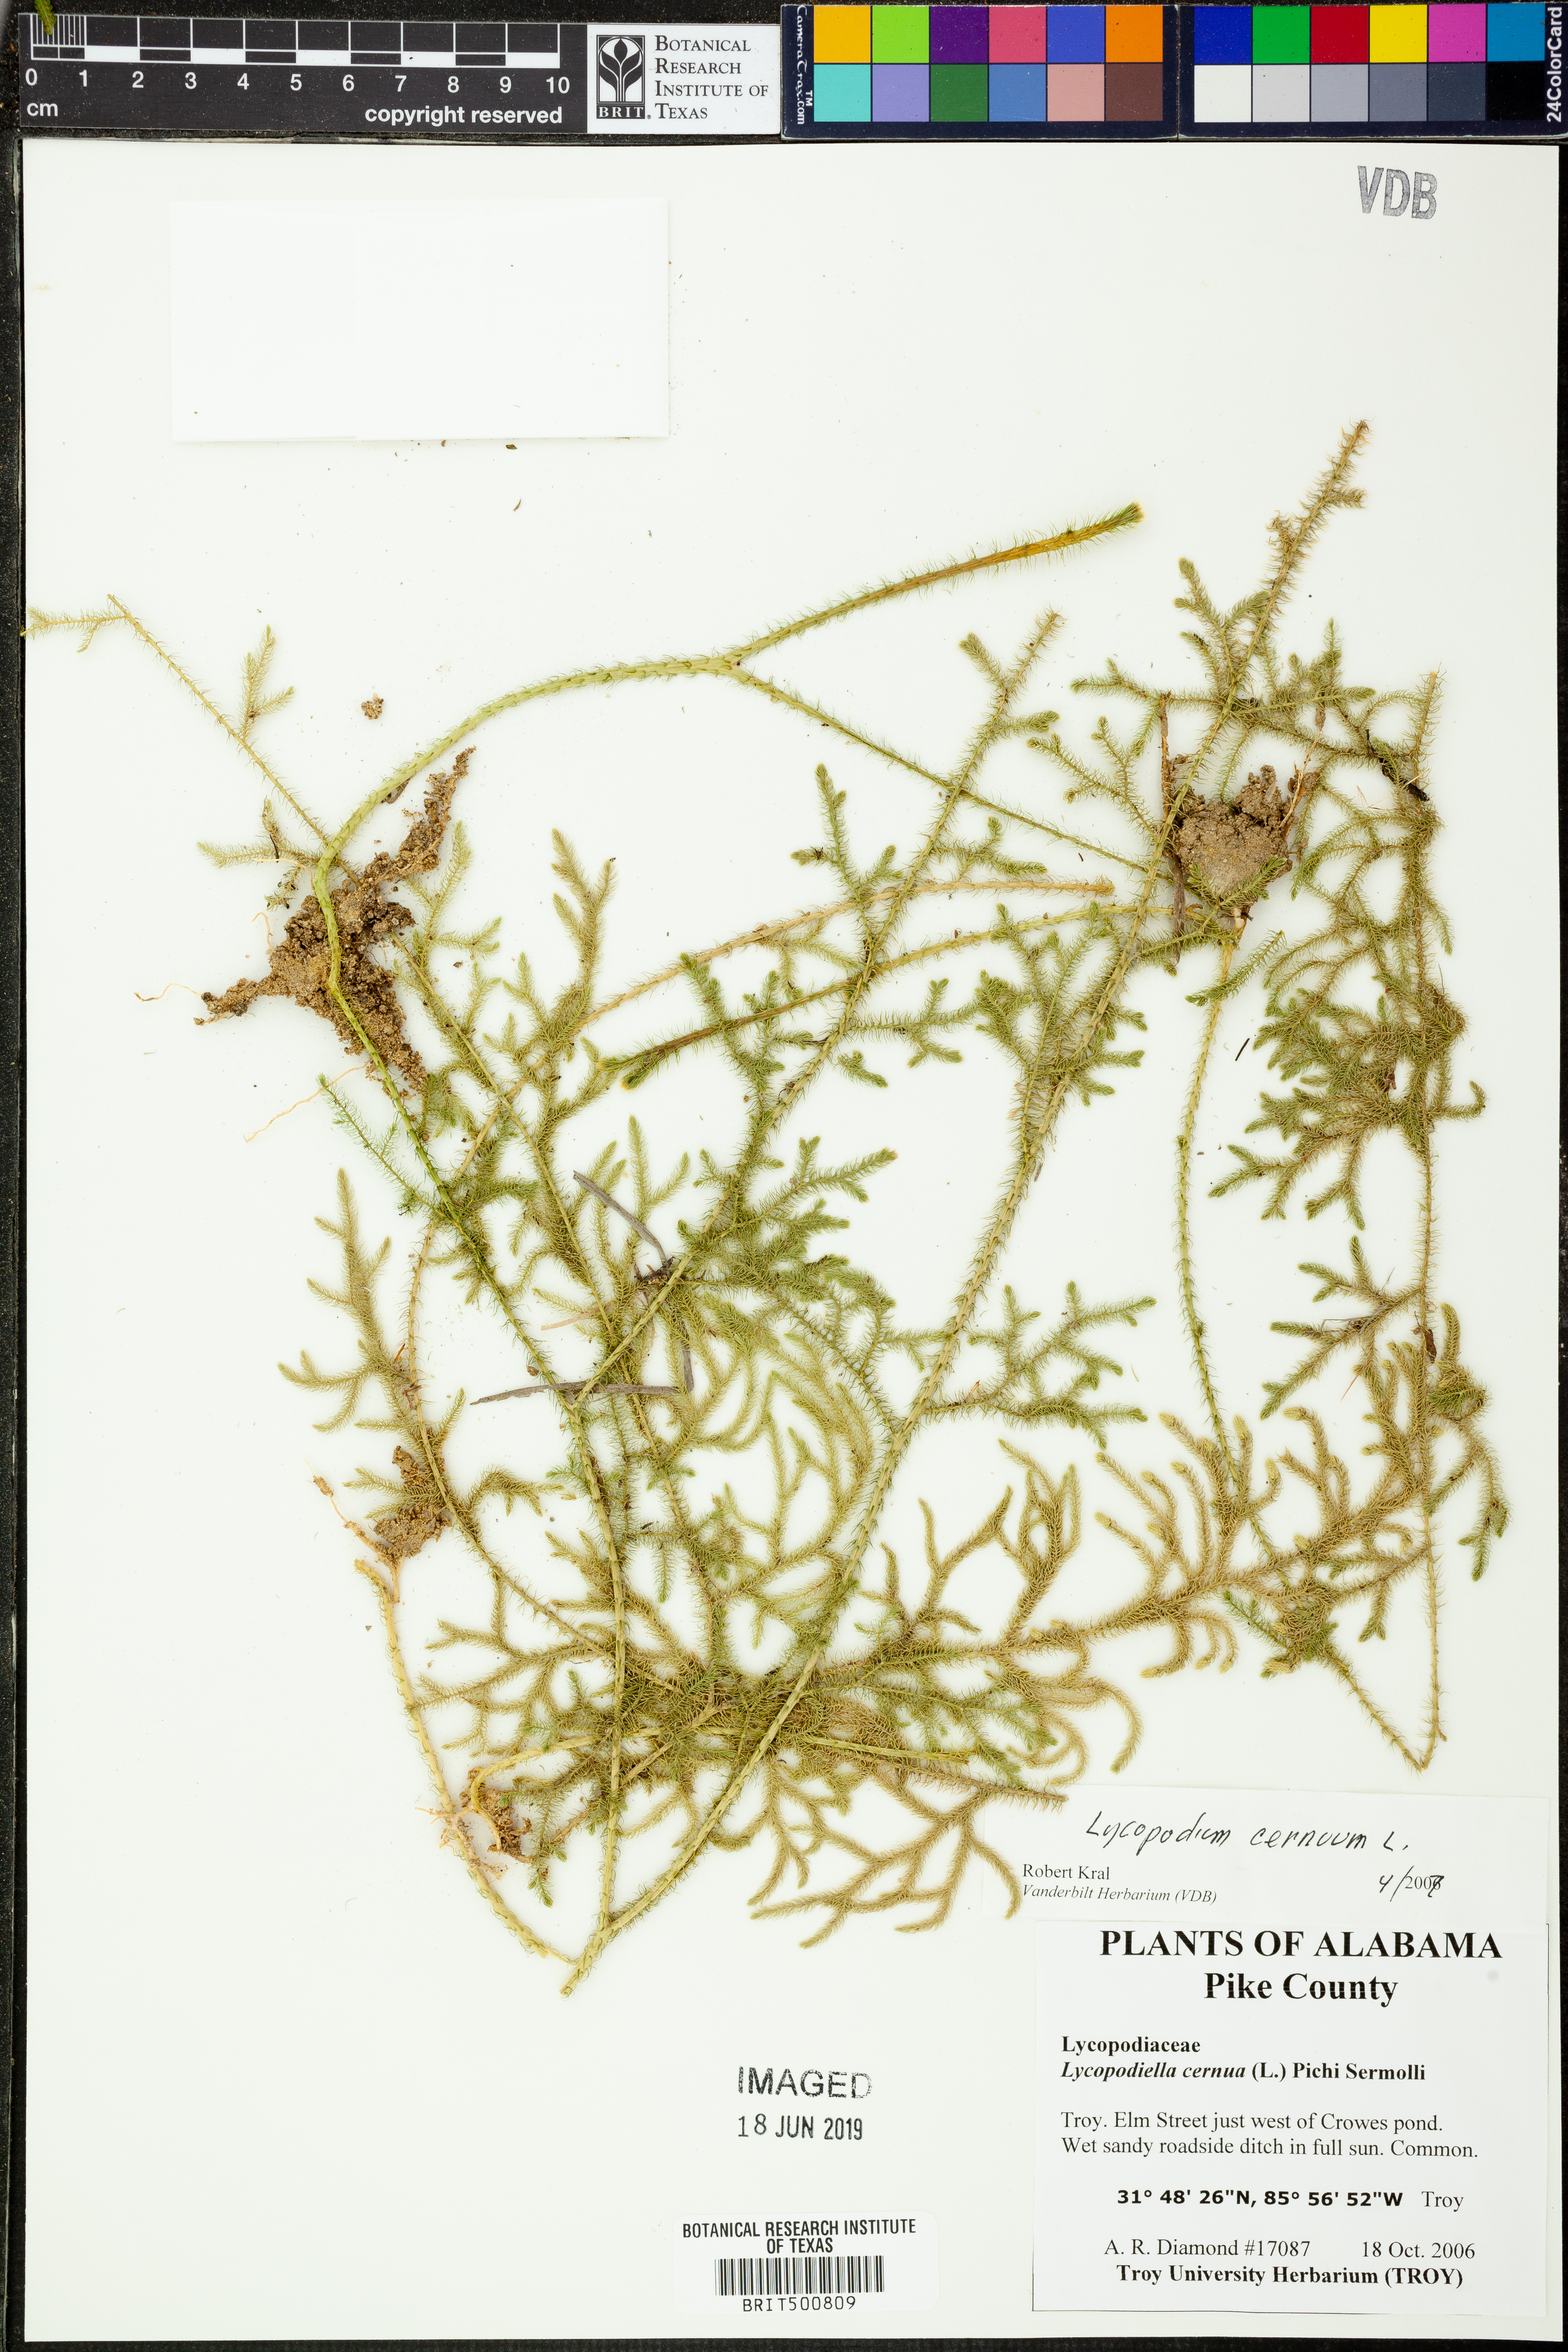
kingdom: Plantae
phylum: Tracheophyta
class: Lycopodiopsida
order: Lycopodiales
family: Lycopodiaceae
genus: Palhinhaea
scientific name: Palhinhaea cernua
